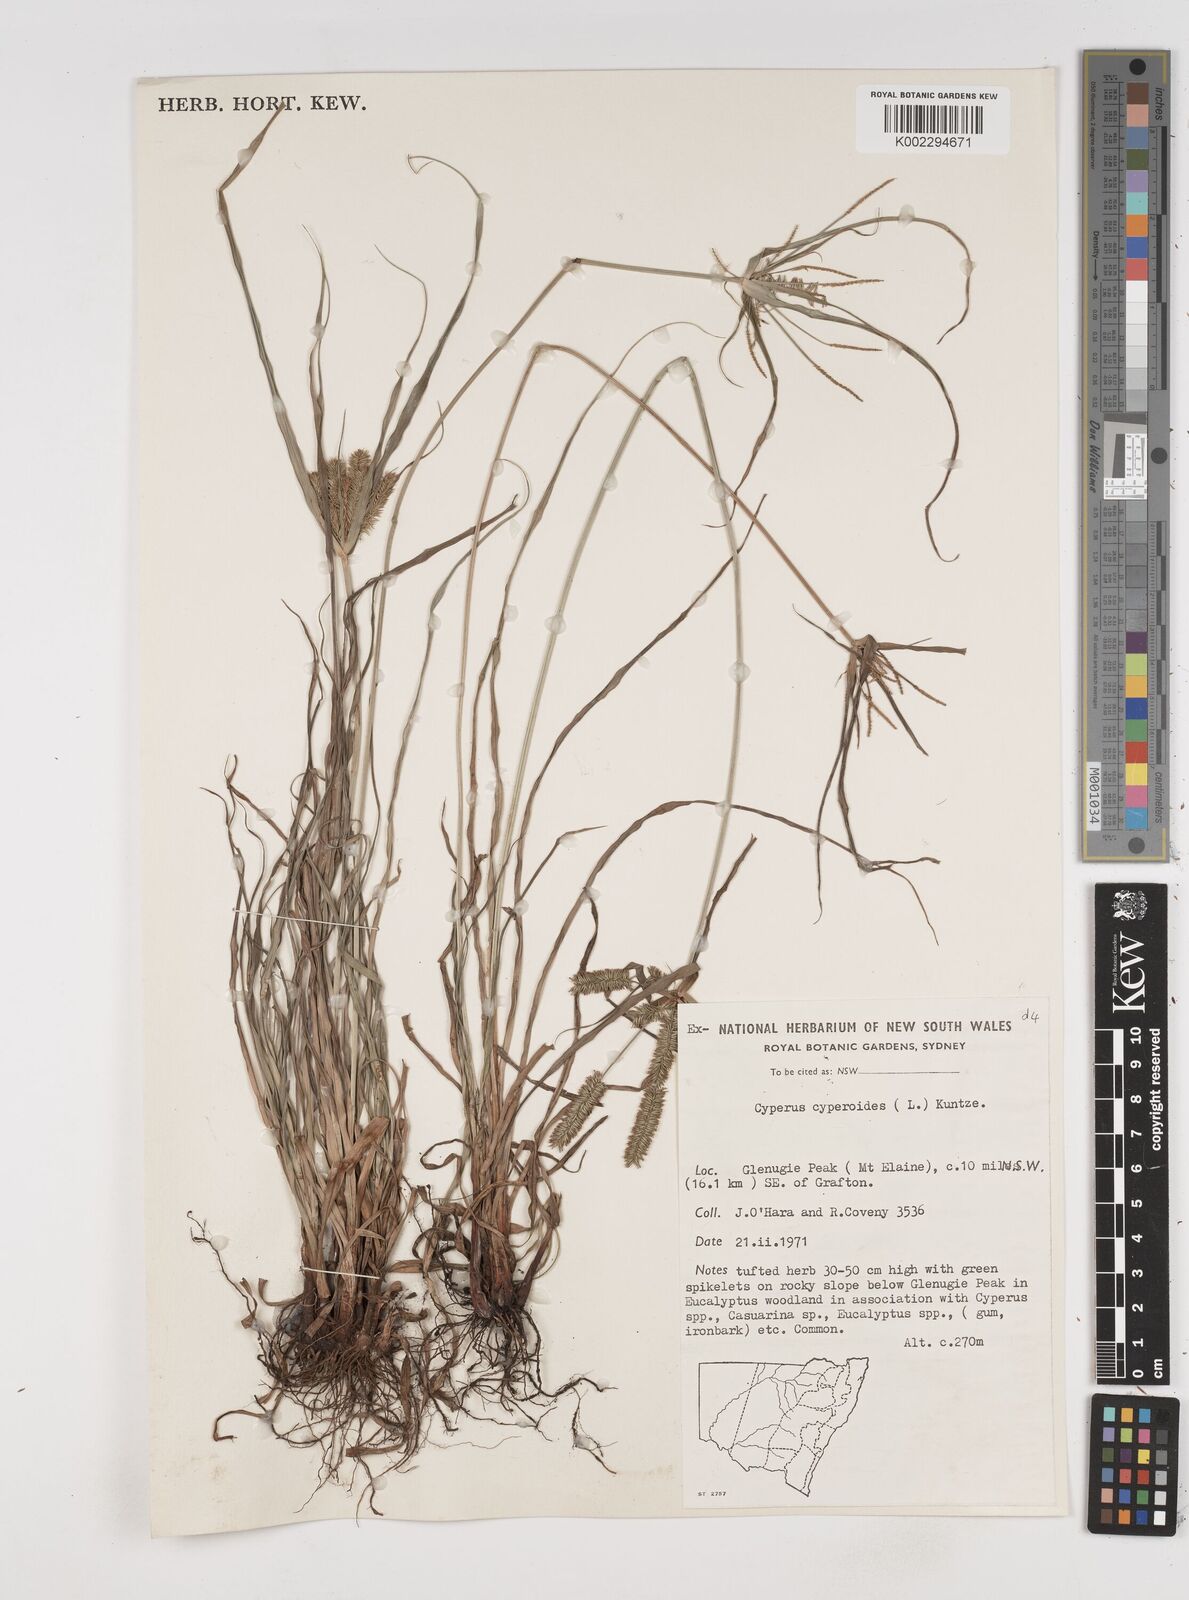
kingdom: Plantae
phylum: Tracheophyta
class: Liliopsida
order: Poales
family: Cyperaceae
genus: Cyperus
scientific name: Cyperus cyperoides
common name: Pacific island flat sedge
